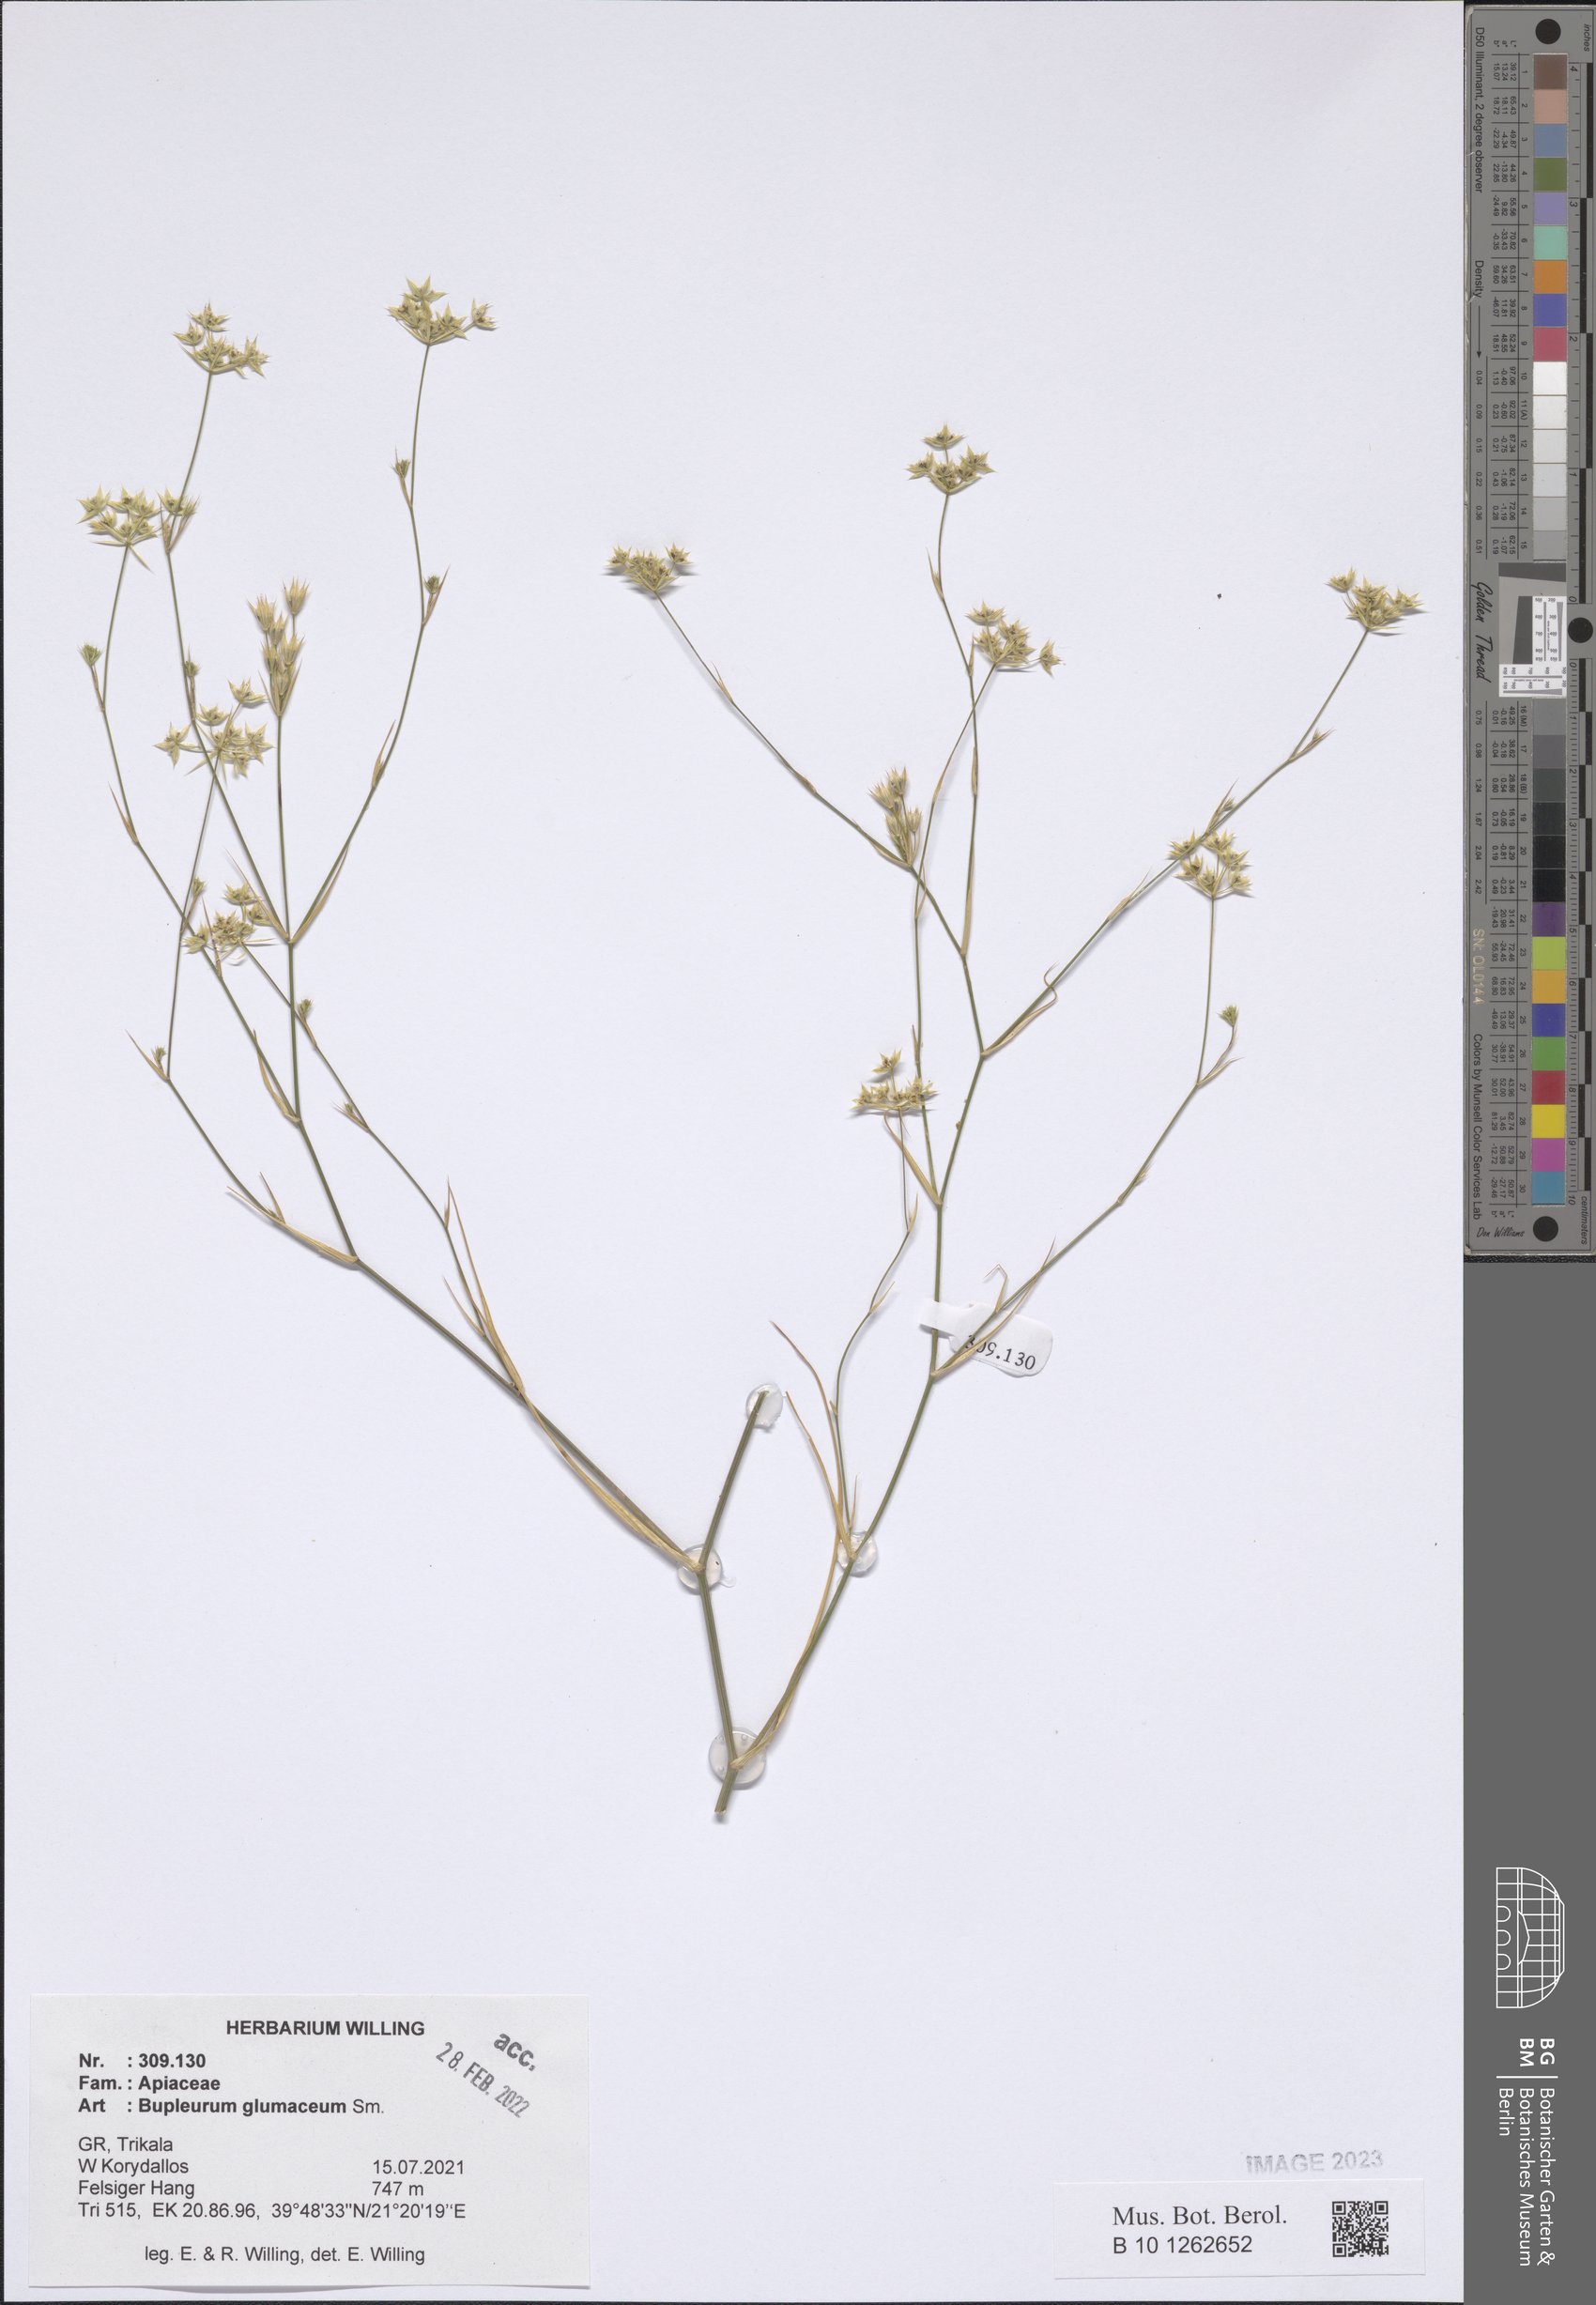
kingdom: Plantae
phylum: Tracheophyta
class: Magnoliopsida
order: Apiales
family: Apiaceae
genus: Bupleurum
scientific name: Bupleurum glumaceum
